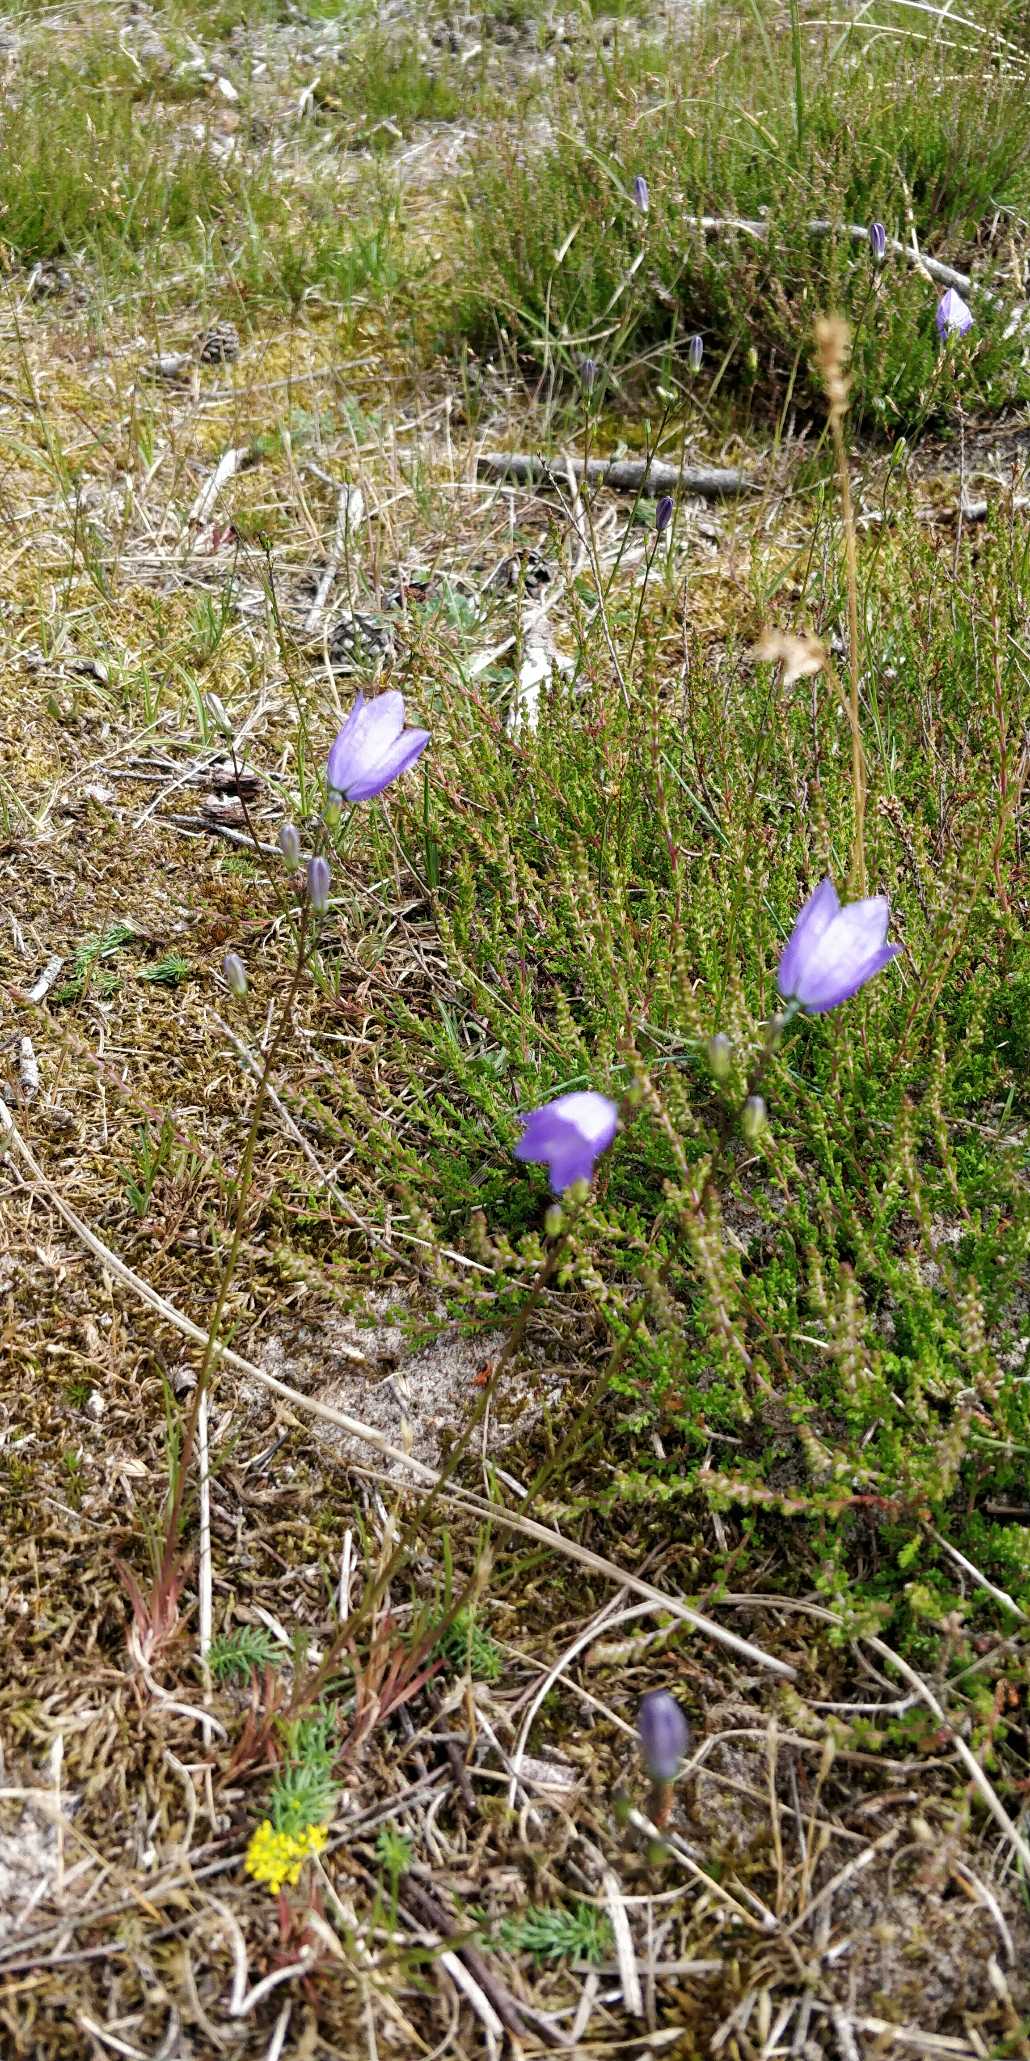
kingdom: Plantae
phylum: Tracheophyta
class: Magnoliopsida
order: Asterales
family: Campanulaceae
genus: Campanula
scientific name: Campanula rotundifolia
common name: Liden klokke
